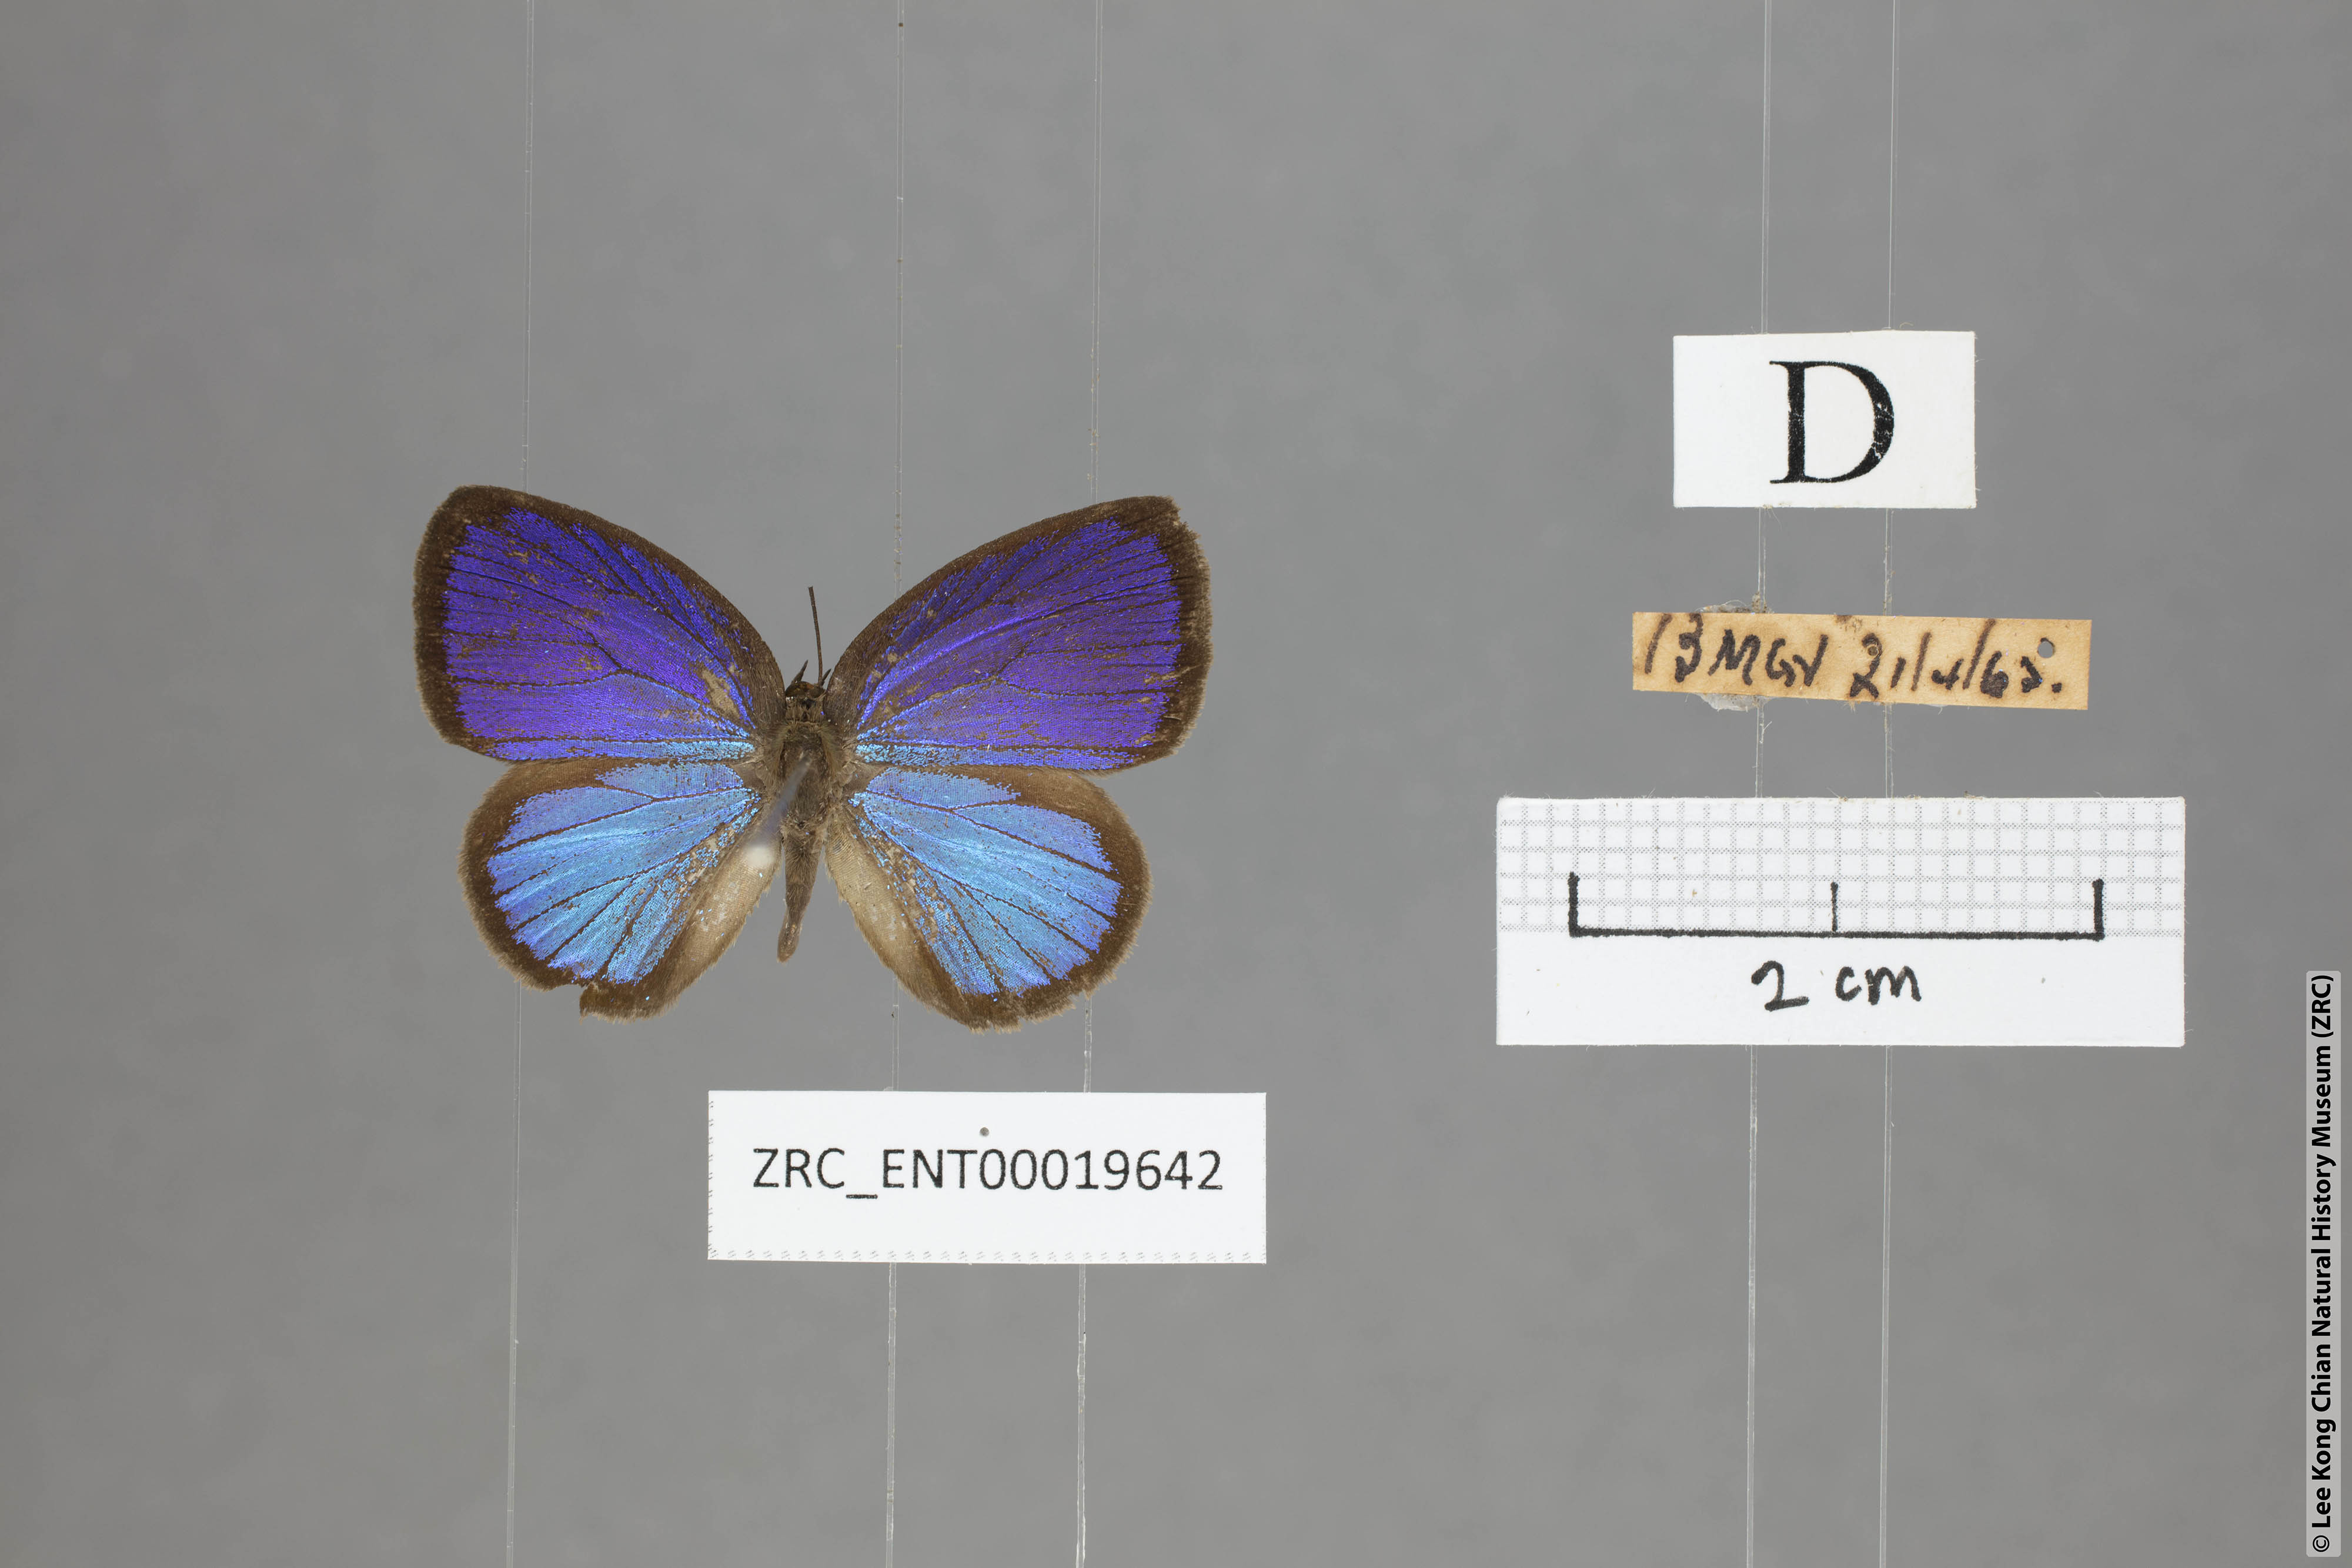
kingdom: Animalia
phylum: Arthropoda
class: Insecta
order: Lepidoptera
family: Lycaenidae
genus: Arhopala
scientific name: Arhopala metamuta
